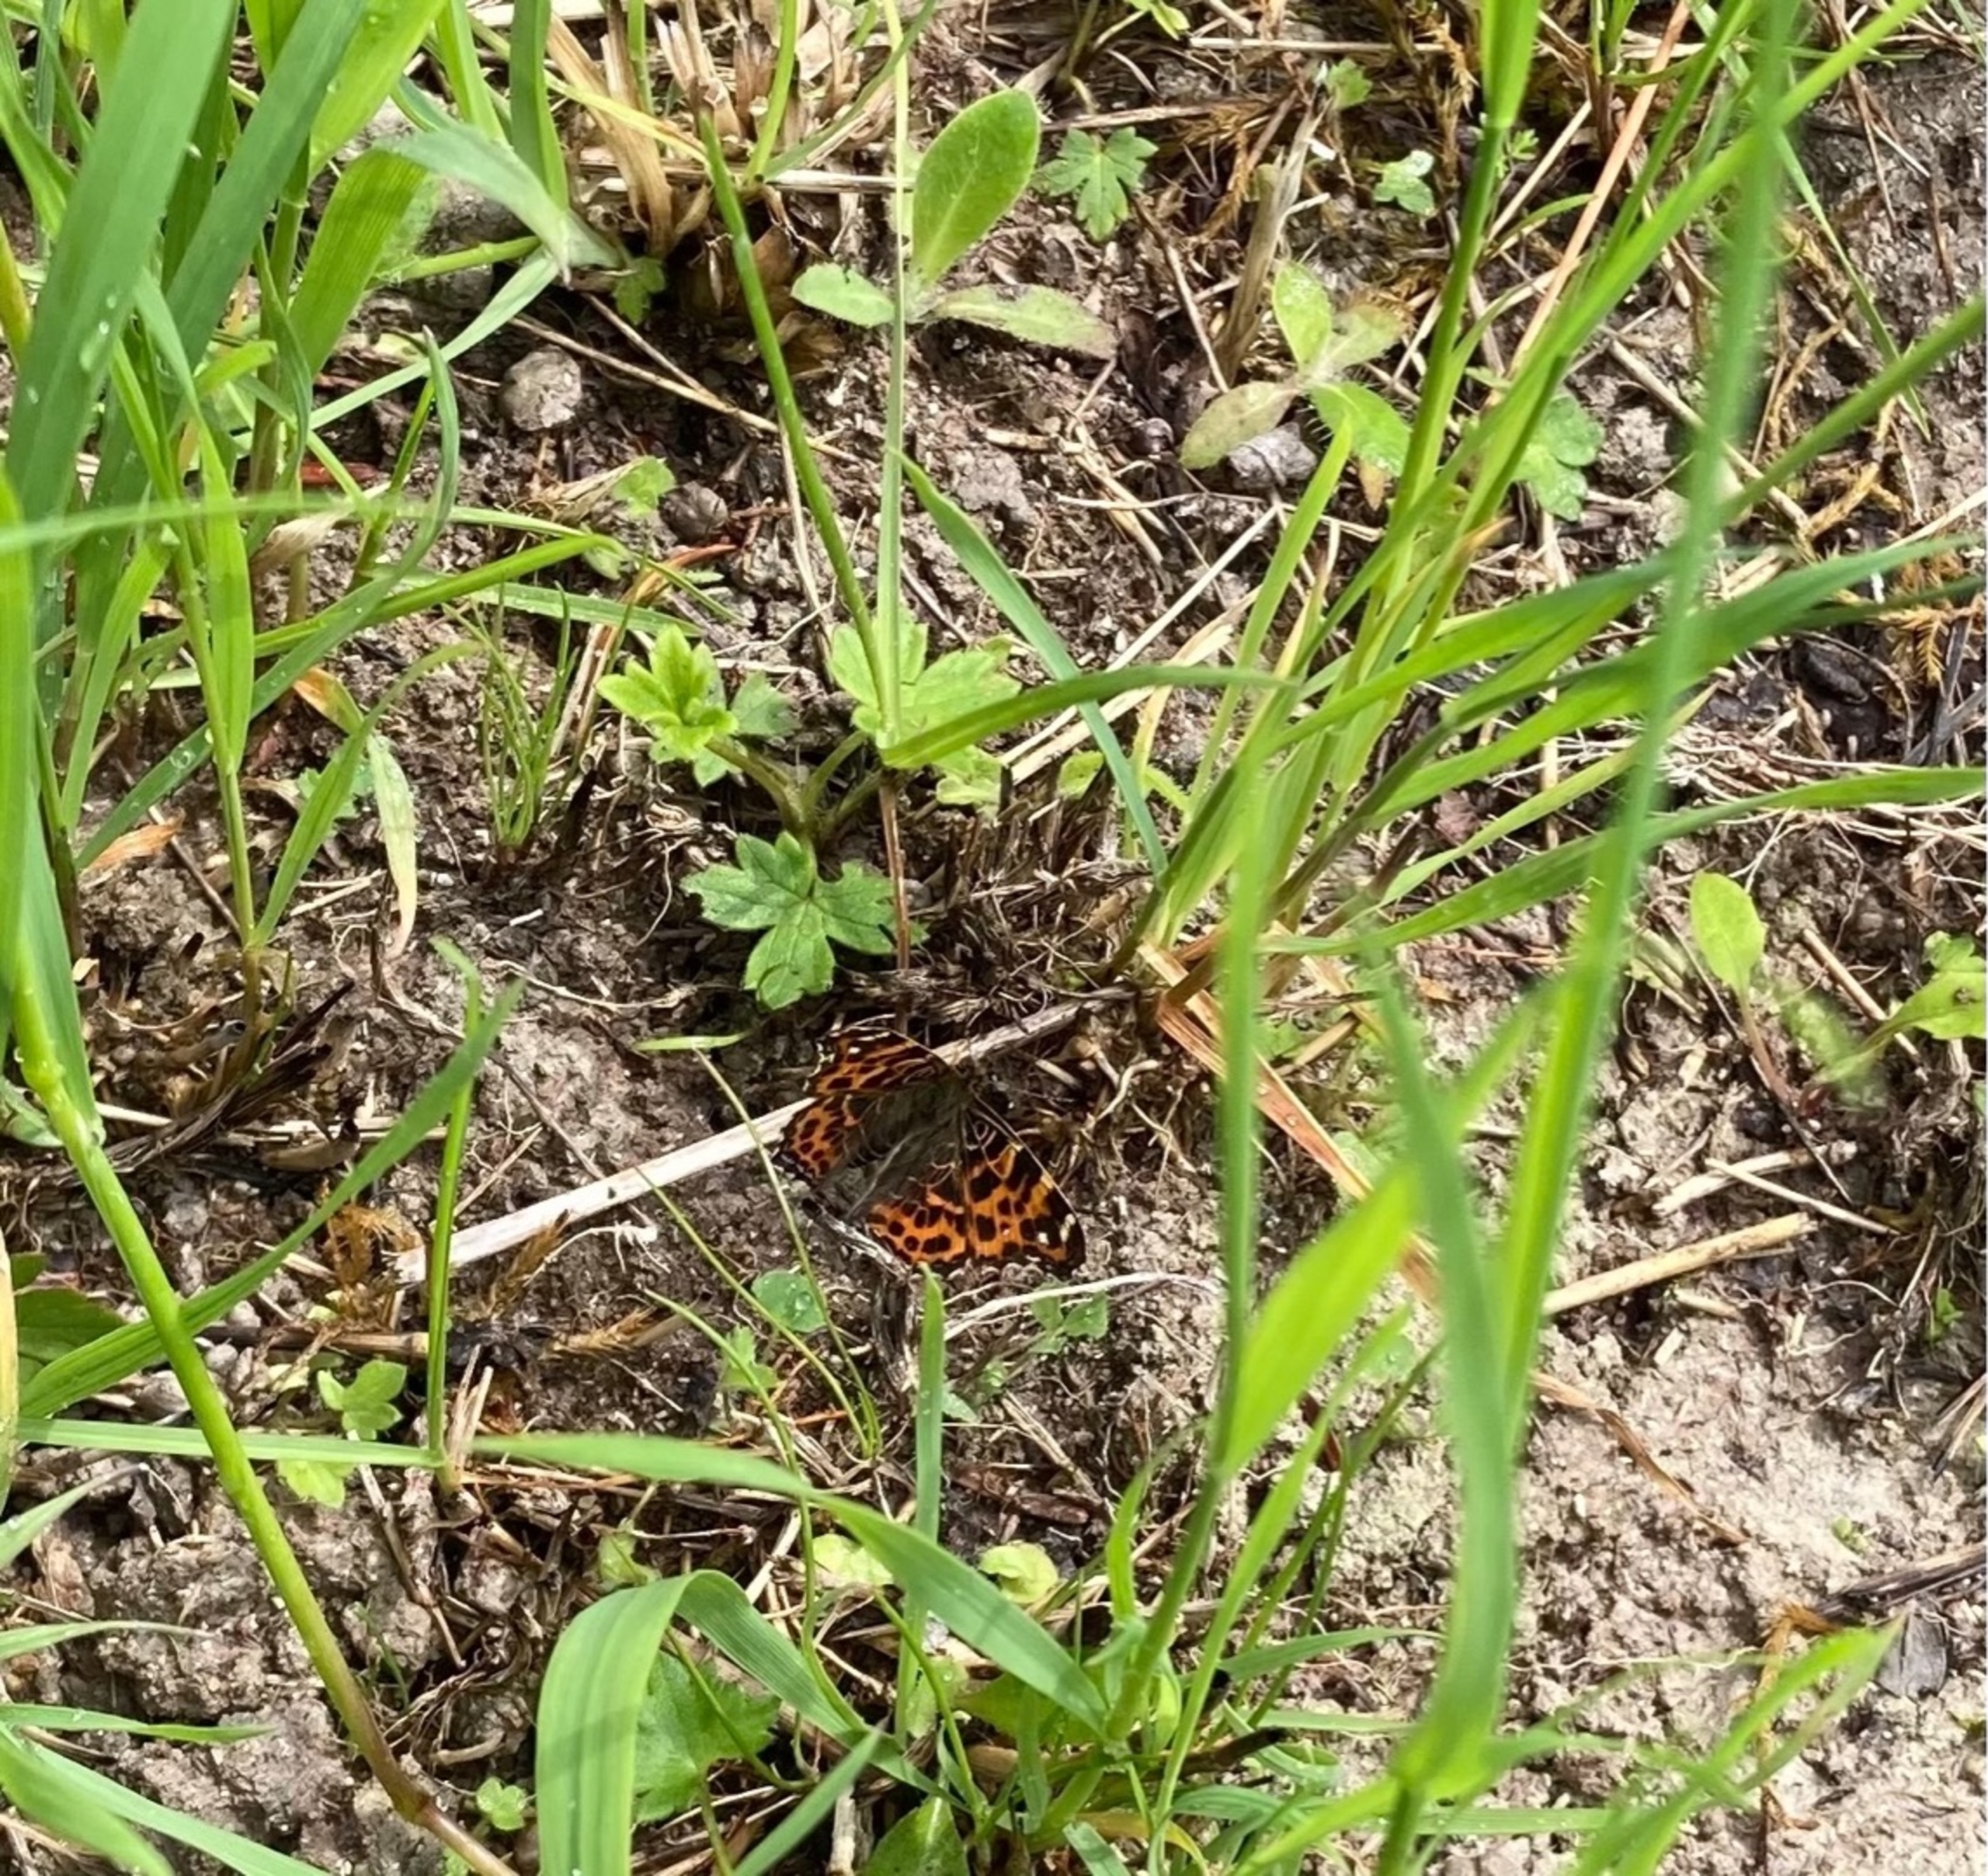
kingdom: Animalia
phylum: Arthropoda
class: Insecta
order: Lepidoptera
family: Nymphalidae
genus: Araschnia
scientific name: Araschnia levana
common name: Nældesommerfugl
